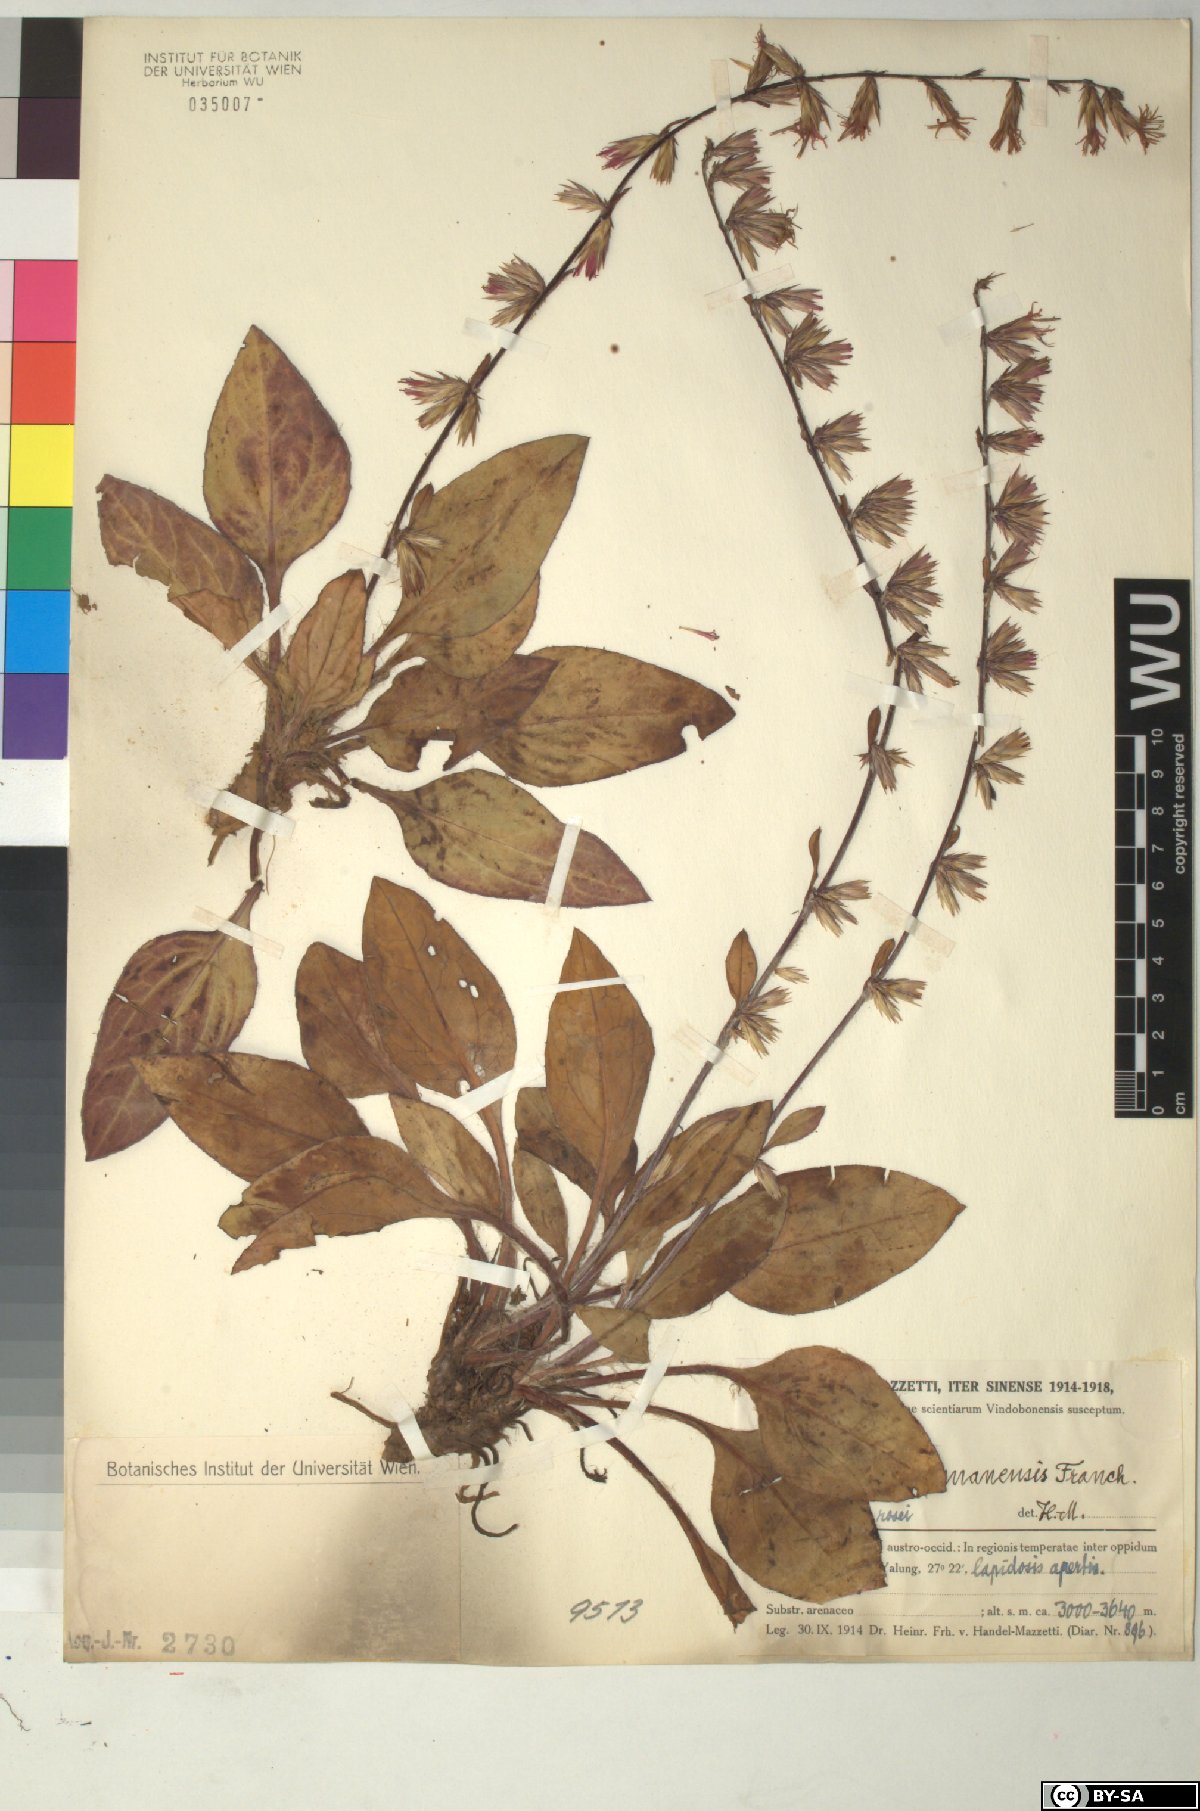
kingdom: Plantae
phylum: Tracheophyta
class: Magnoliopsida
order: Asterales
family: Asteraceae
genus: Ainsliaea
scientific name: Ainsliaea yunnanensis
